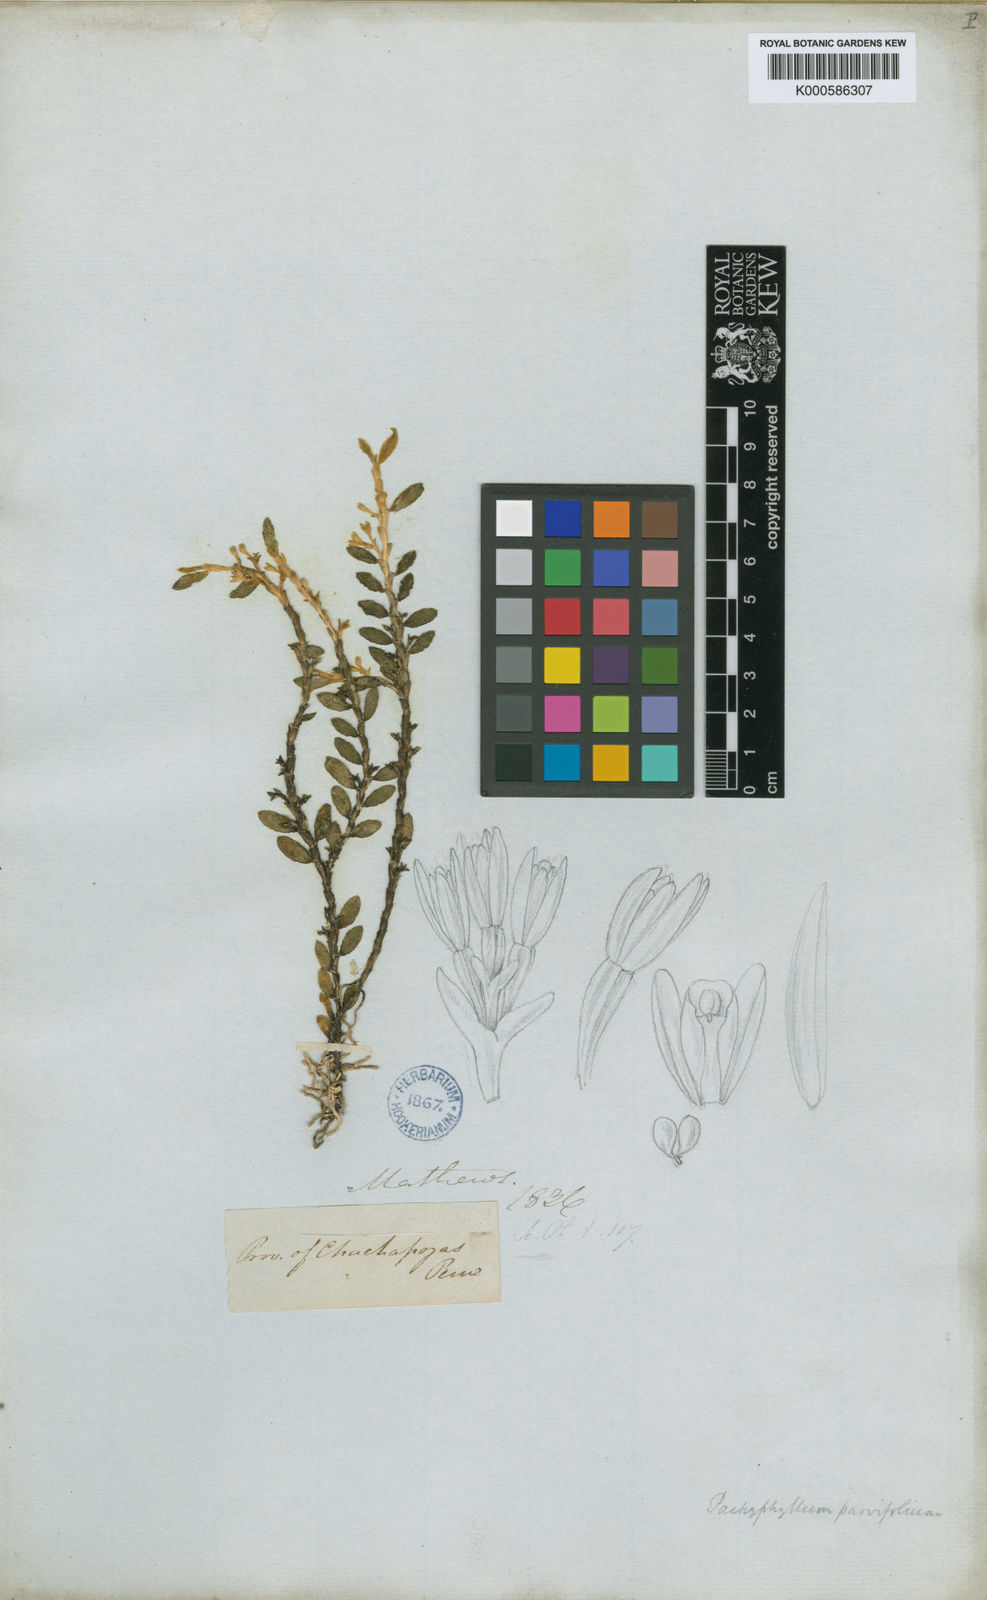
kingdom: Plantae
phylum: Tracheophyta
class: Liliopsida
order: Asparagales
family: Orchidaceae
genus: Fernandezia
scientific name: Fernandezia parvifolia
